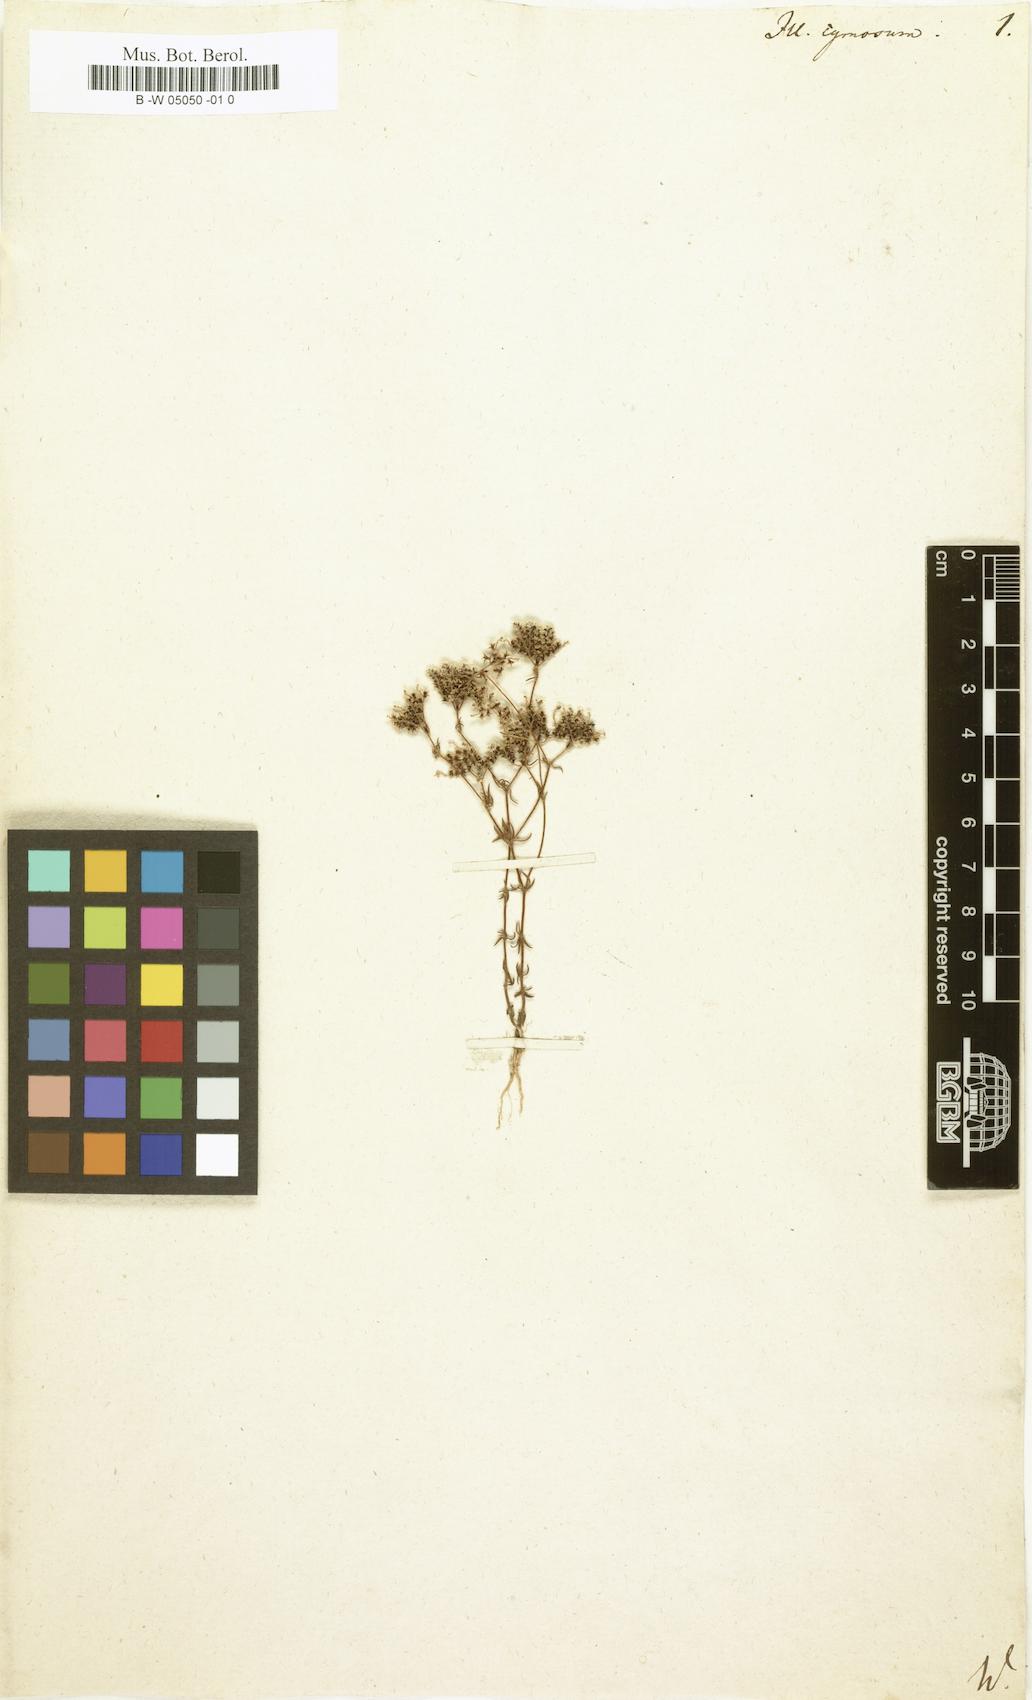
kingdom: Plantae
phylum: Tracheophyta
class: Magnoliopsida
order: Caryophyllales
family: Caryophyllaceae
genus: Chaetonychia
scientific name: Chaetonychia cymosa
